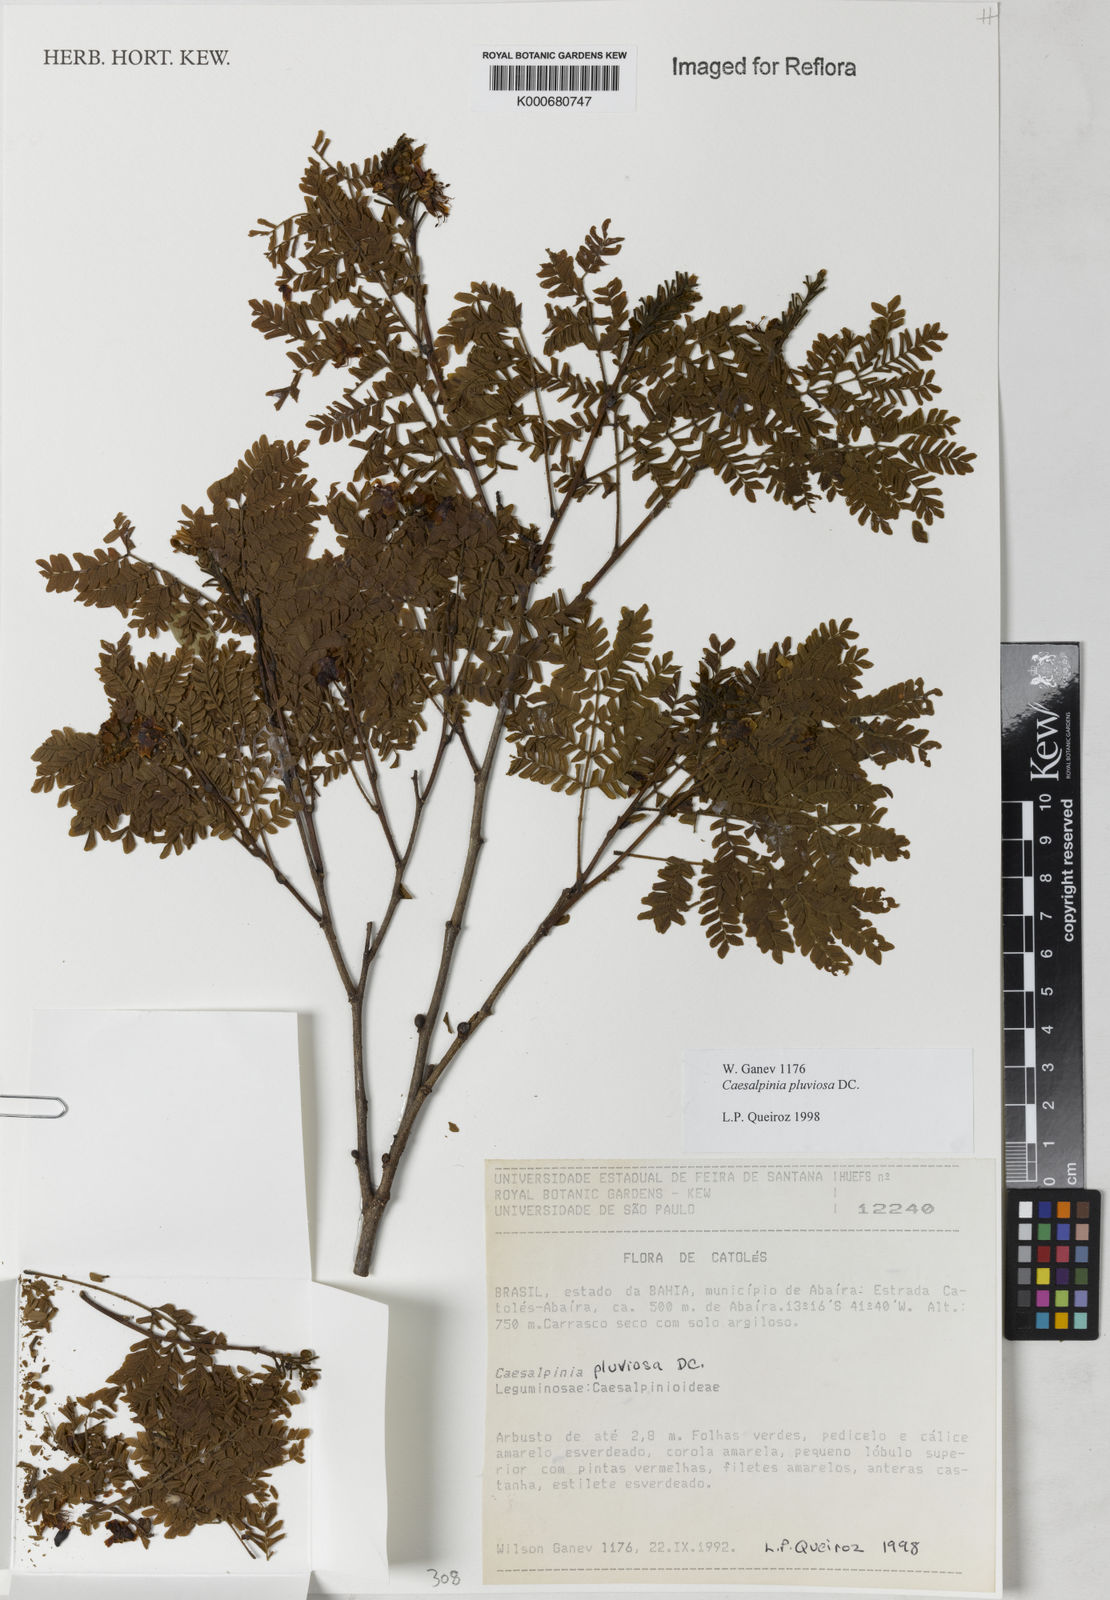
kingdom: Plantae
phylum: Tracheophyta
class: Magnoliopsida
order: Fabales
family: Fabaceae
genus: Cenostigma
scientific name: Cenostigma pluviosum
